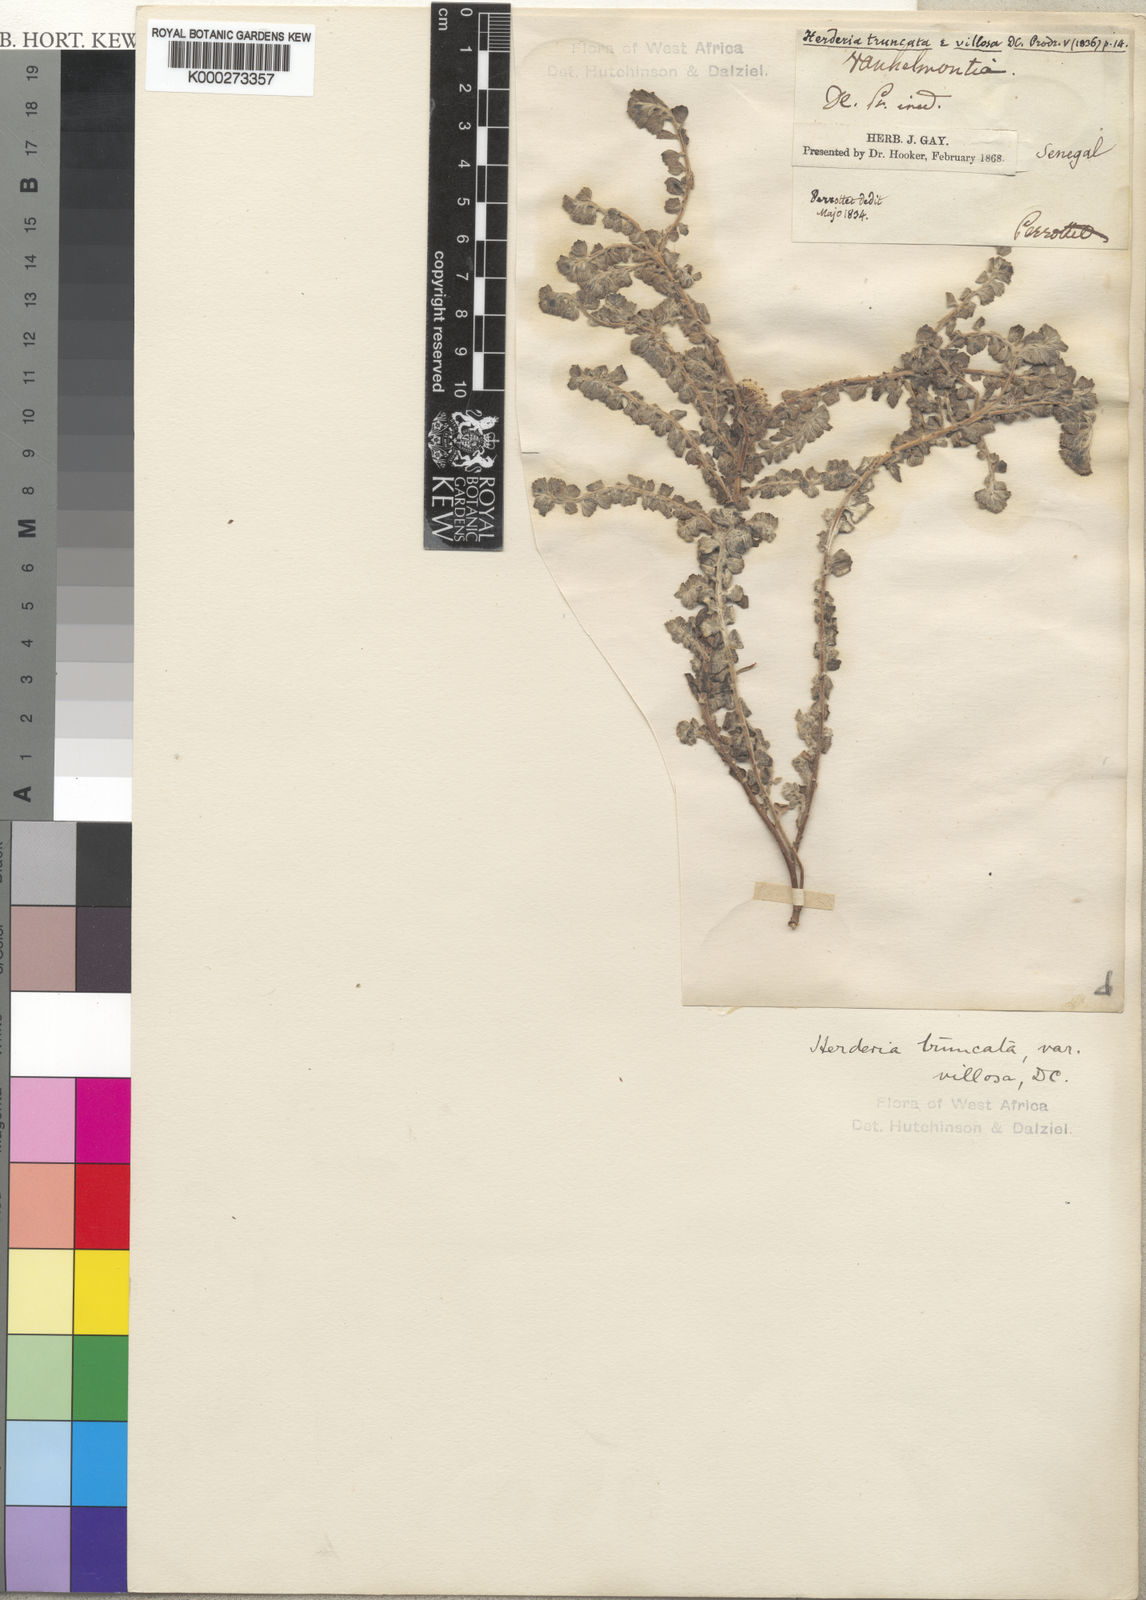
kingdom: Plantae
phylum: Tracheophyta
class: Magnoliopsida
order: Asterales
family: Asteraceae
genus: Herderia
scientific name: Herderia truncata
